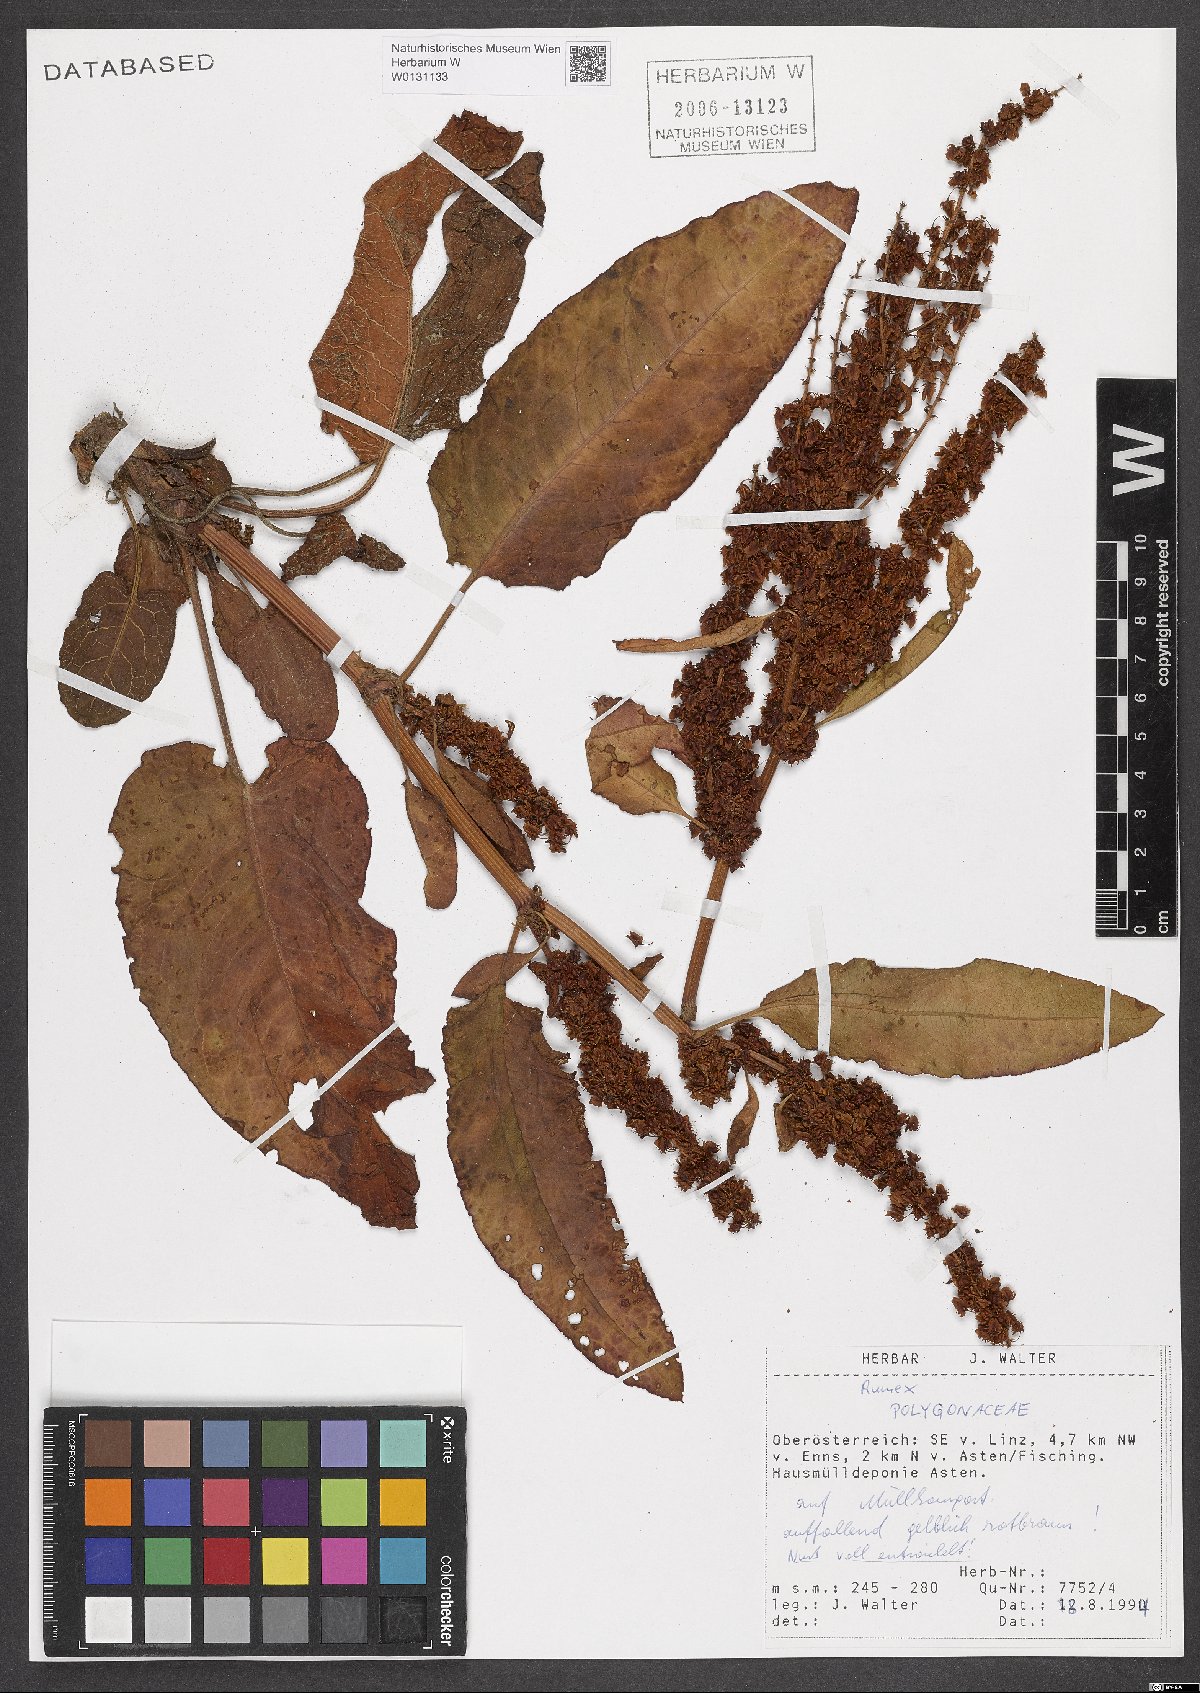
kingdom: Plantae
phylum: Tracheophyta
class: Magnoliopsida
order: Caryophyllales
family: Polygonaceae
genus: Rumex
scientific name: Rumex
